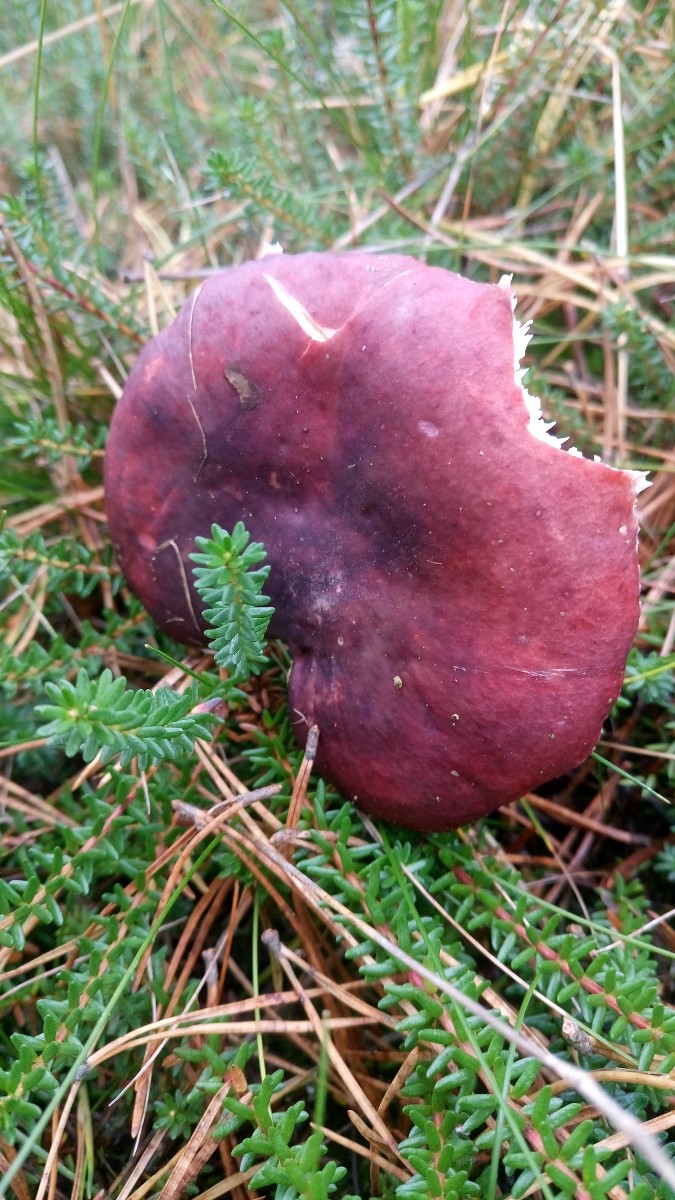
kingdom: Fungi
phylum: Basidiomycota
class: Agaricomycetes
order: Russulales
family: Russulaceae
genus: Russula
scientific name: Russula sardonia
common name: citronbladet skørhat
